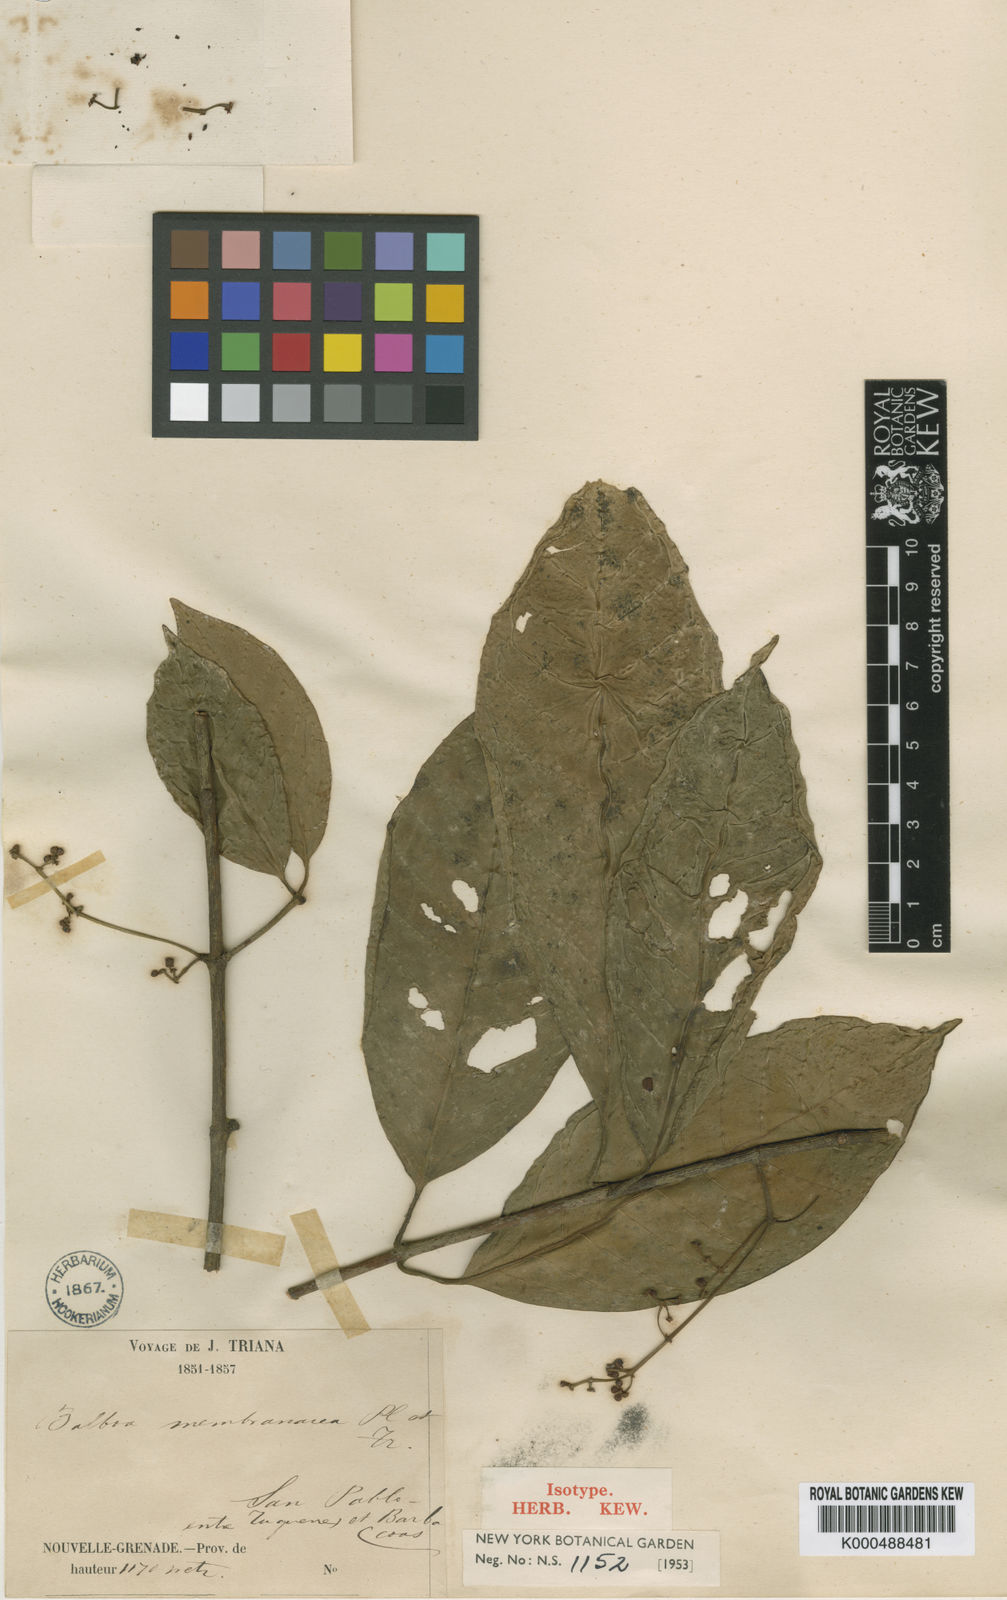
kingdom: Plantae
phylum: Tracheophyta
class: Magnoliopsida
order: Malpighiales
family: Clusiaceae
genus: Chrysochlamys
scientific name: Chrysochlamys balboa
